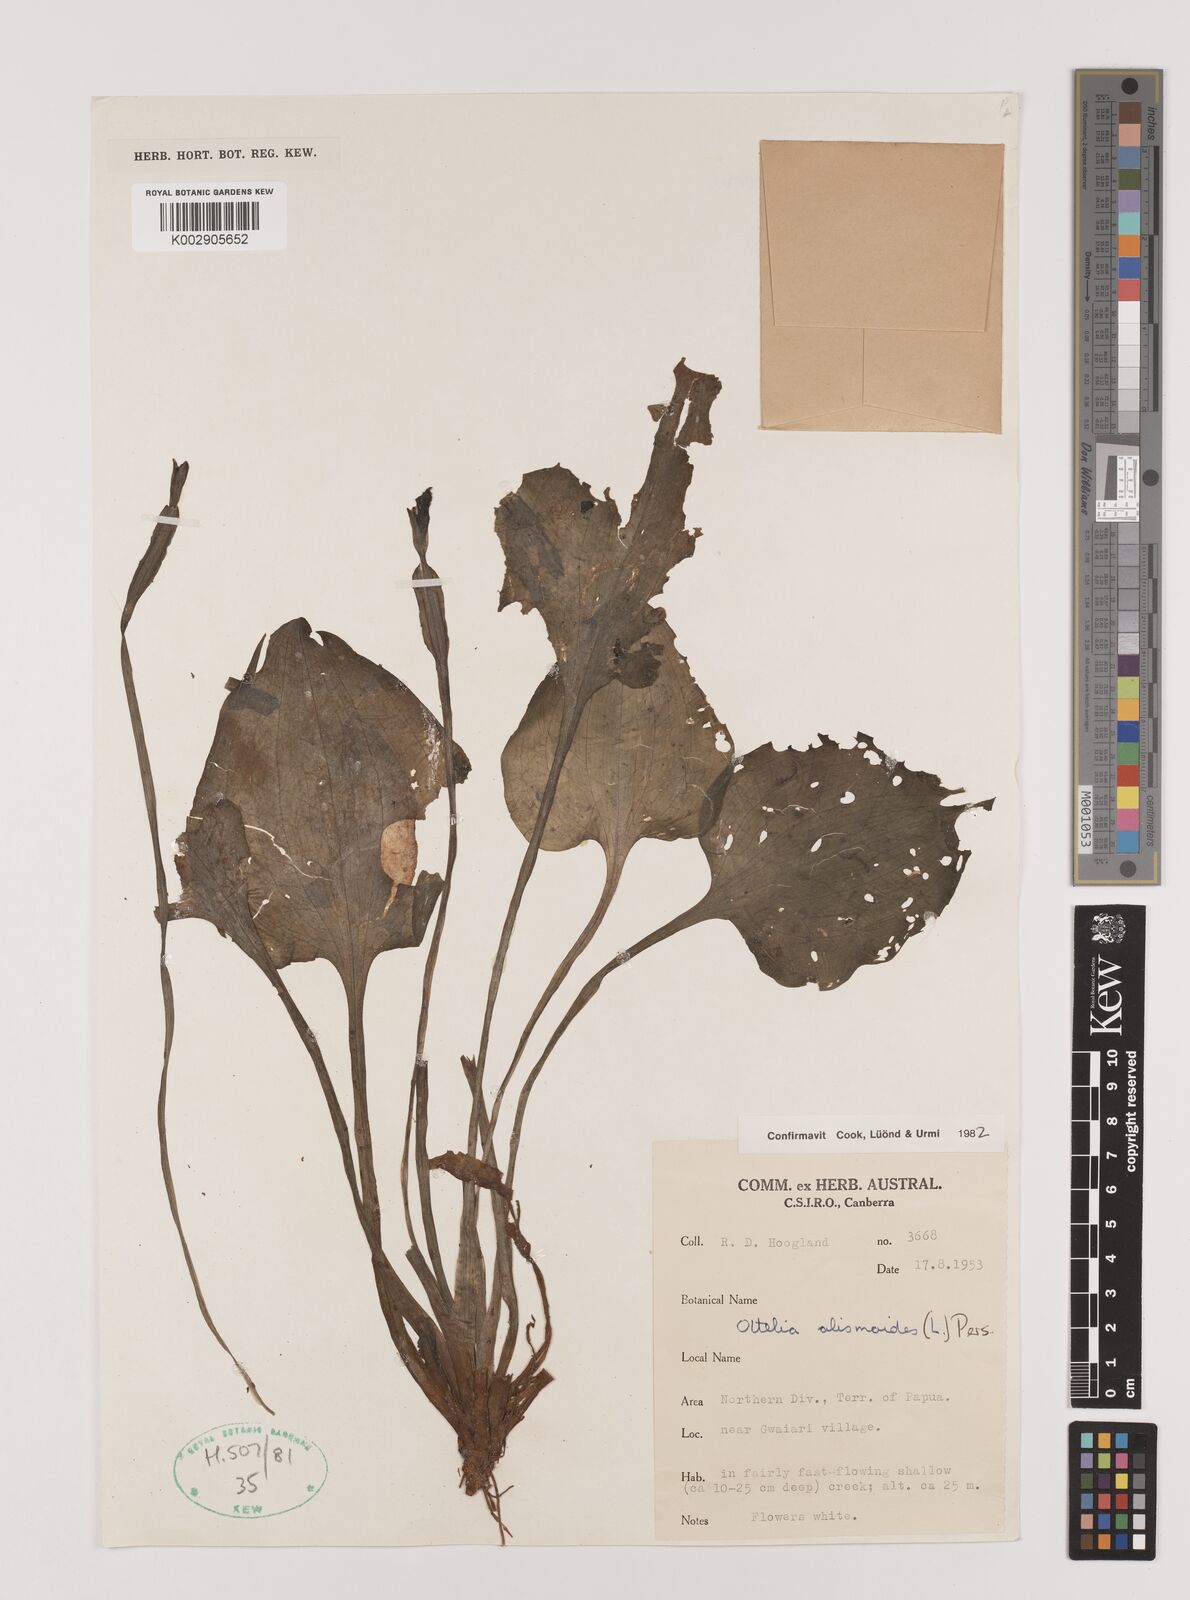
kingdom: Plantae
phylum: Tracheophyta
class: Liliopsida
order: Alismatales
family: Hydrocharitaceae
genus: Ottelia
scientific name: Ottelia alismoides
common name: Duck-lettuce
